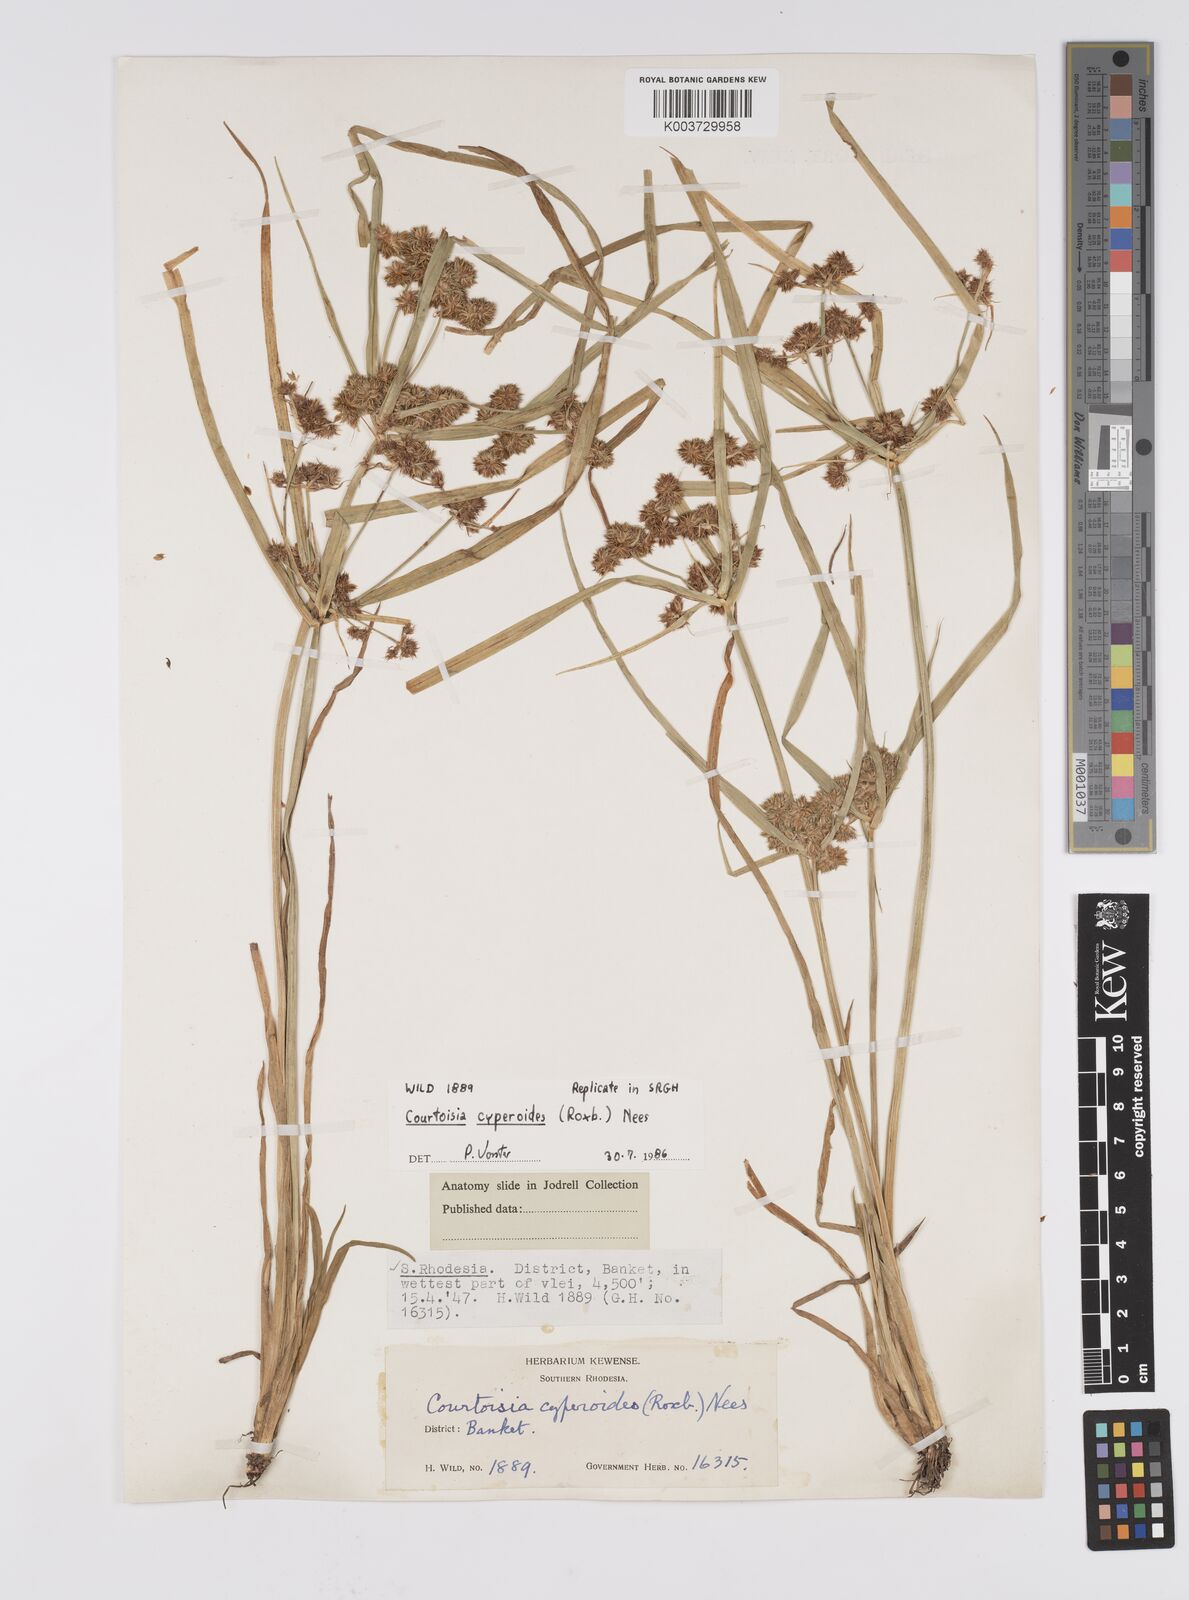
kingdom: Plantae
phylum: Tracheophyta
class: Liliopsida
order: Poales
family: Cyperaceae
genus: Cyperus
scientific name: Cyperus cyperoides
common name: Pacific island flat sedge
